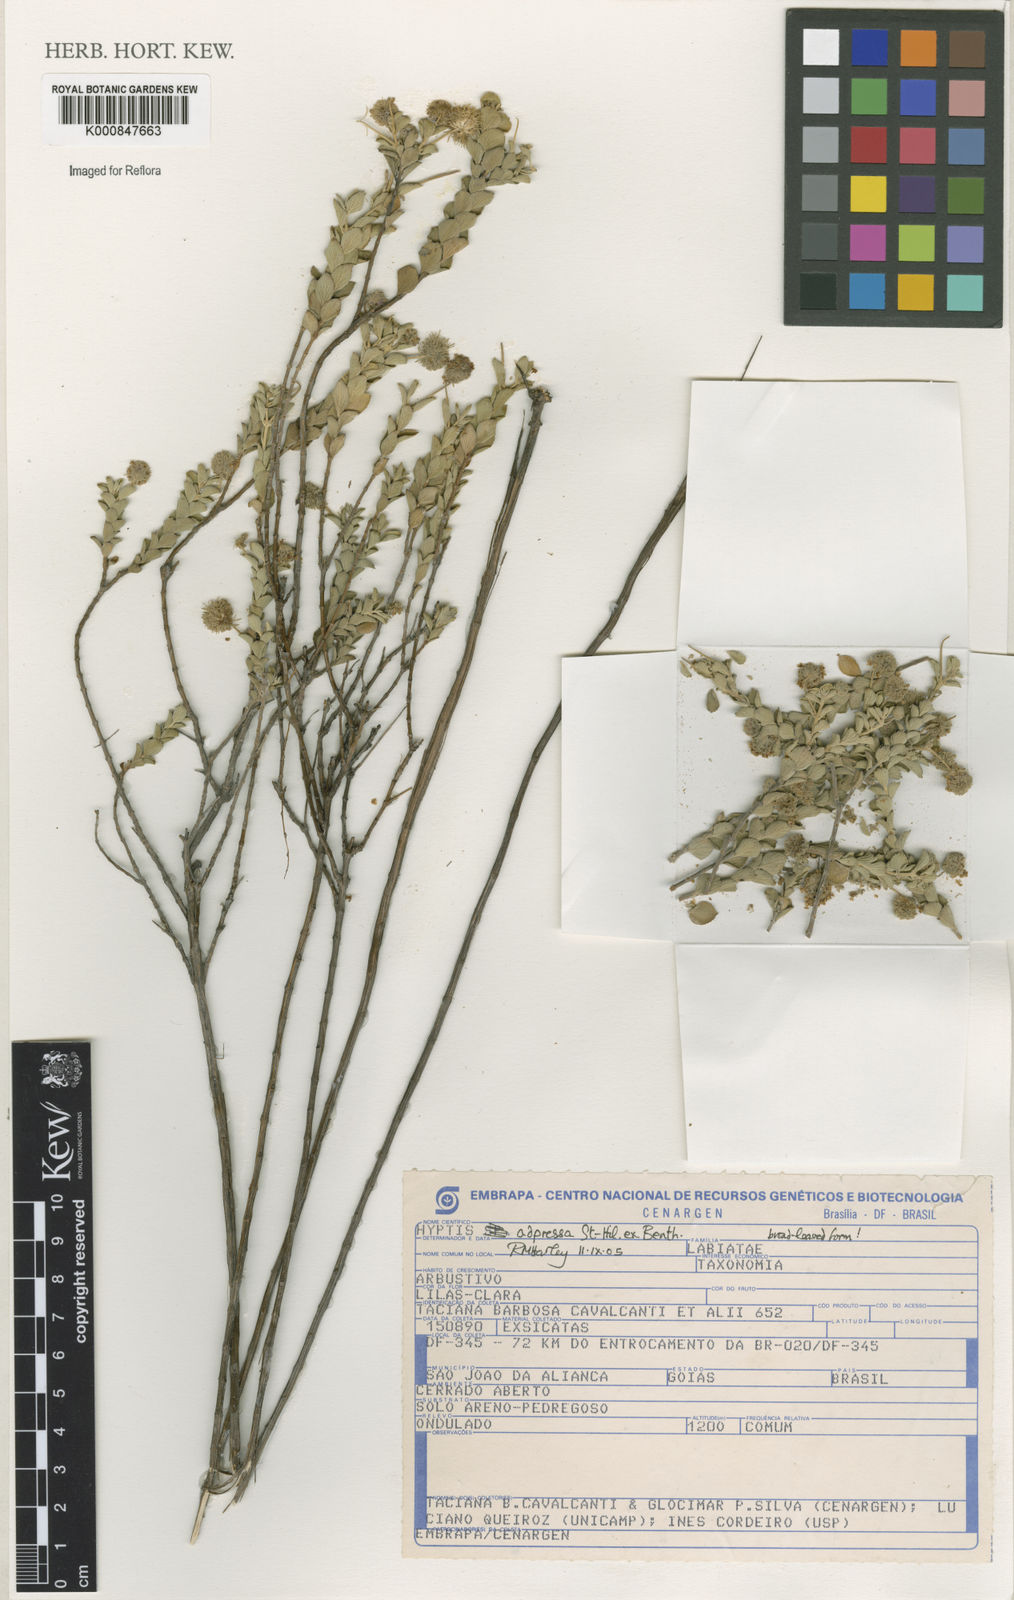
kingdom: Plantae
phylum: Tracheophyta
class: Magnoliopsida
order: Lamiales
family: Lamiaceae
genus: Cyanocephalus
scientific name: Cyanocephalus adpressus
